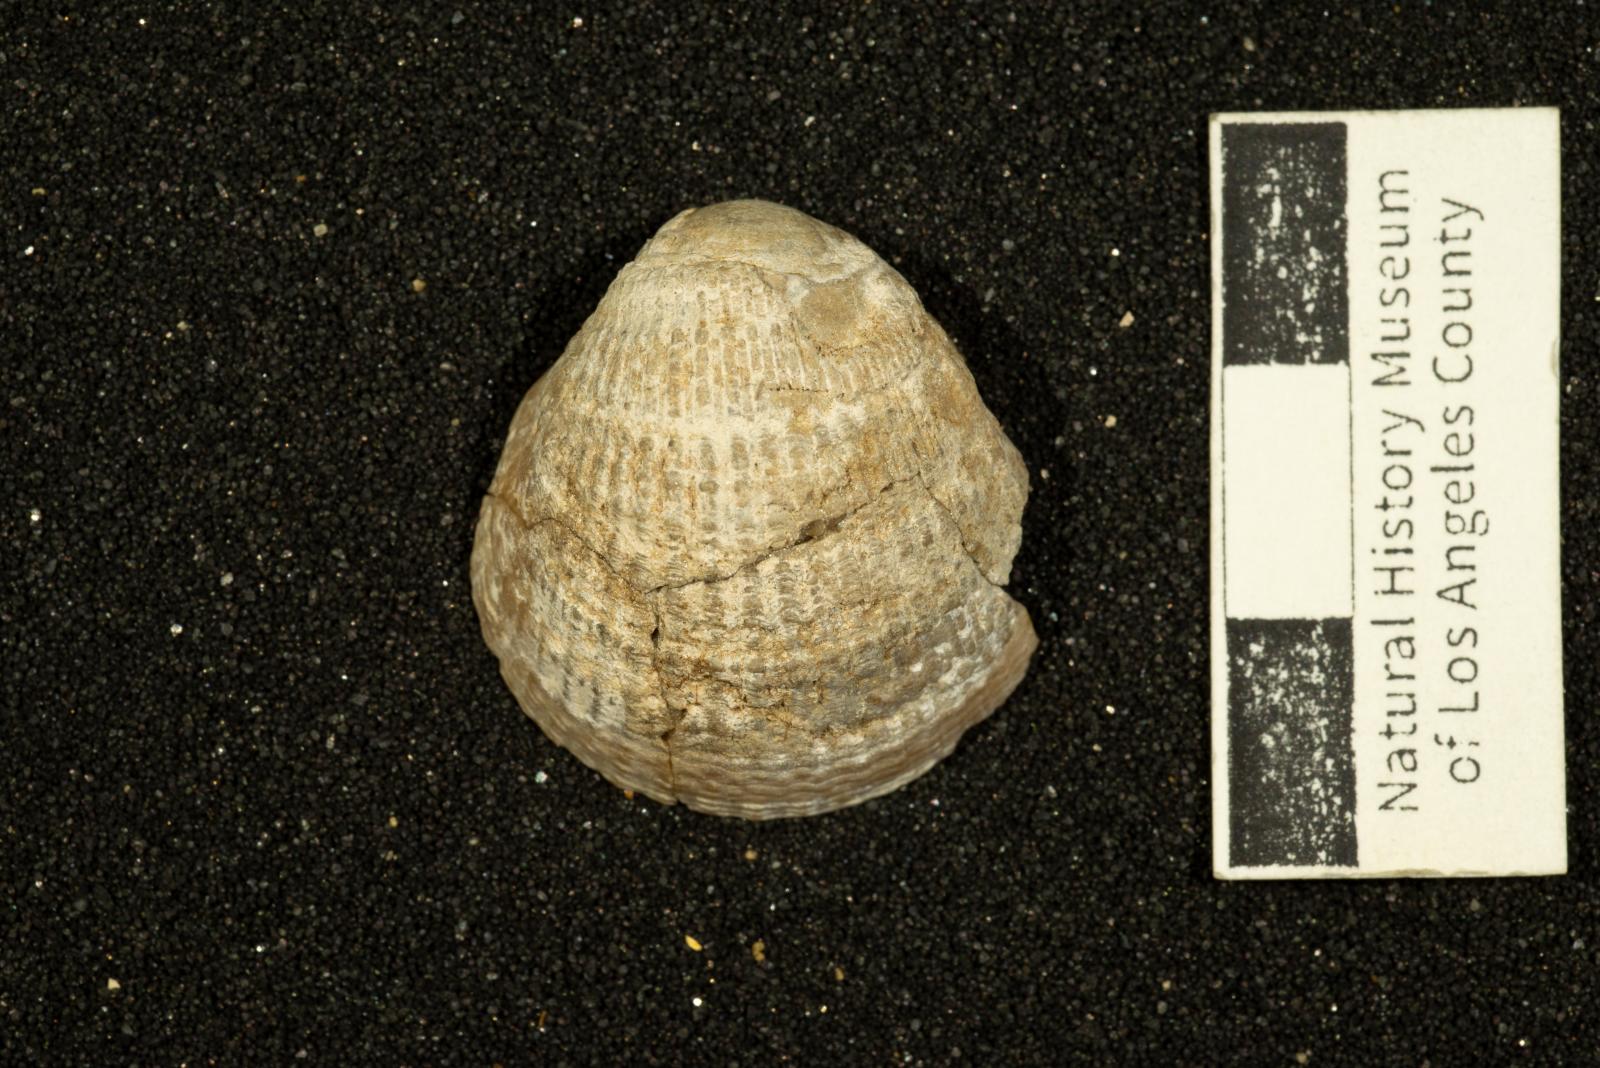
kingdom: Animalia
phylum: Mollusca
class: Bivalvia
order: Arcida
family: Glycymerididae
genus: Glycymerita
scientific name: Glycymerita Axinaea veatchii
